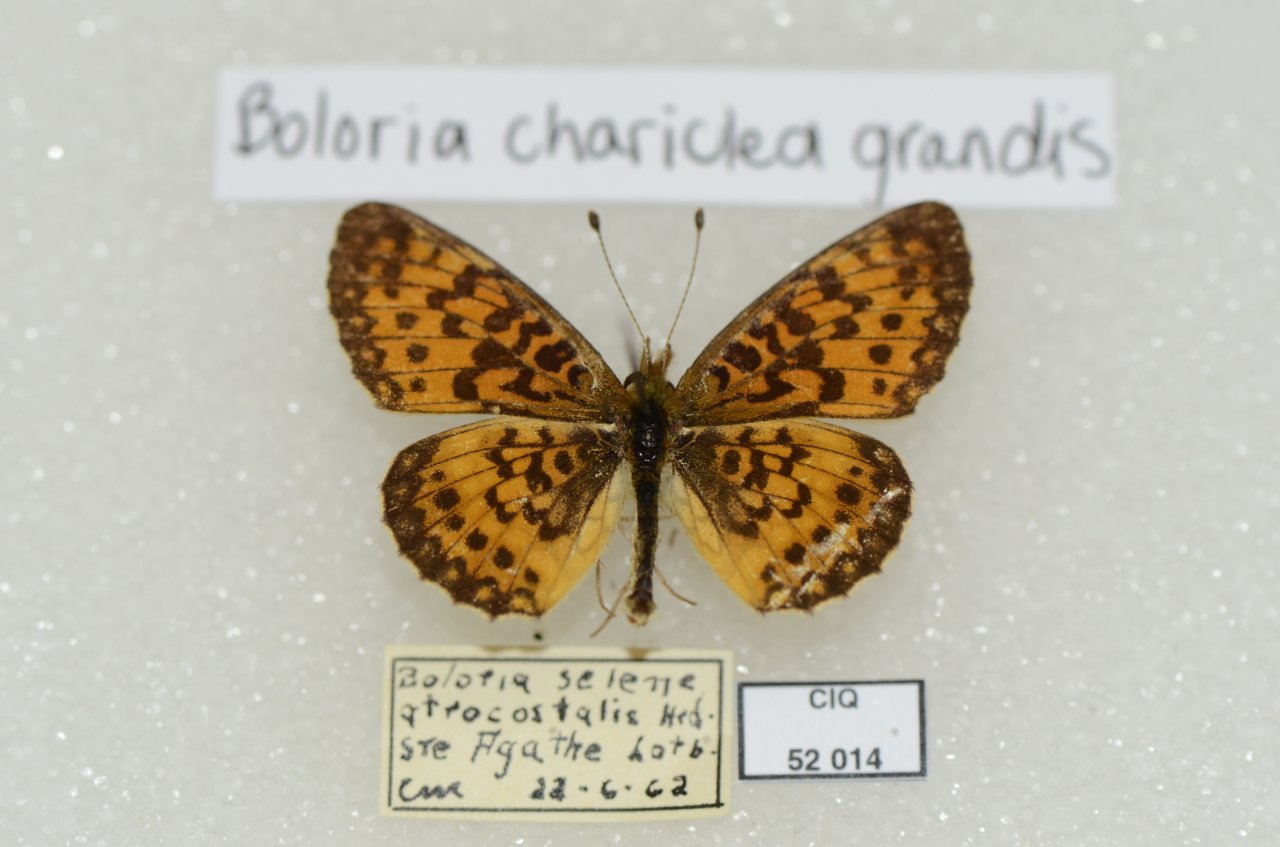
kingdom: Animalia
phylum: Arthropoda
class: Insecta
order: Lepidoptera
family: Nymphalidae
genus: Boloria
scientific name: Boloria selene
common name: Silver-bordered Fritillary
